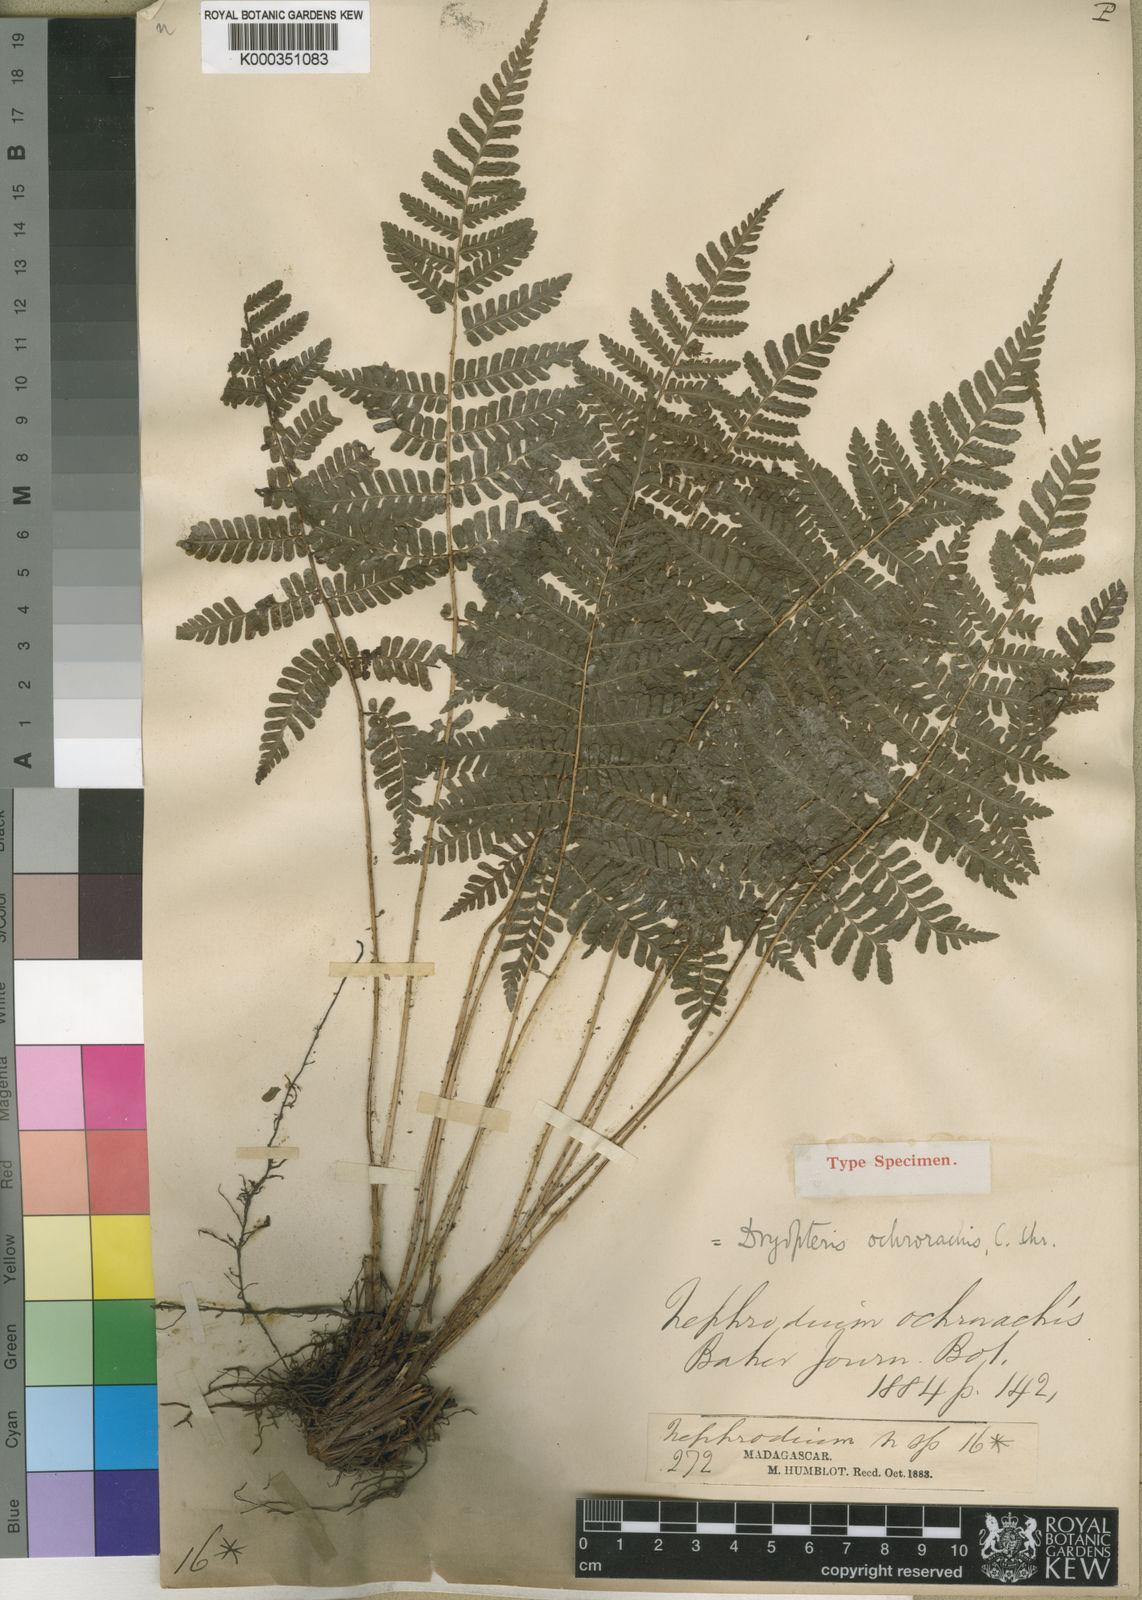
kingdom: Plantae
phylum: Tracheophyta
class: Polypodiopsida
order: Polypodiales
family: Dryopteridaceae
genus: Ctenitis
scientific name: Ctenitis subcrenulata
